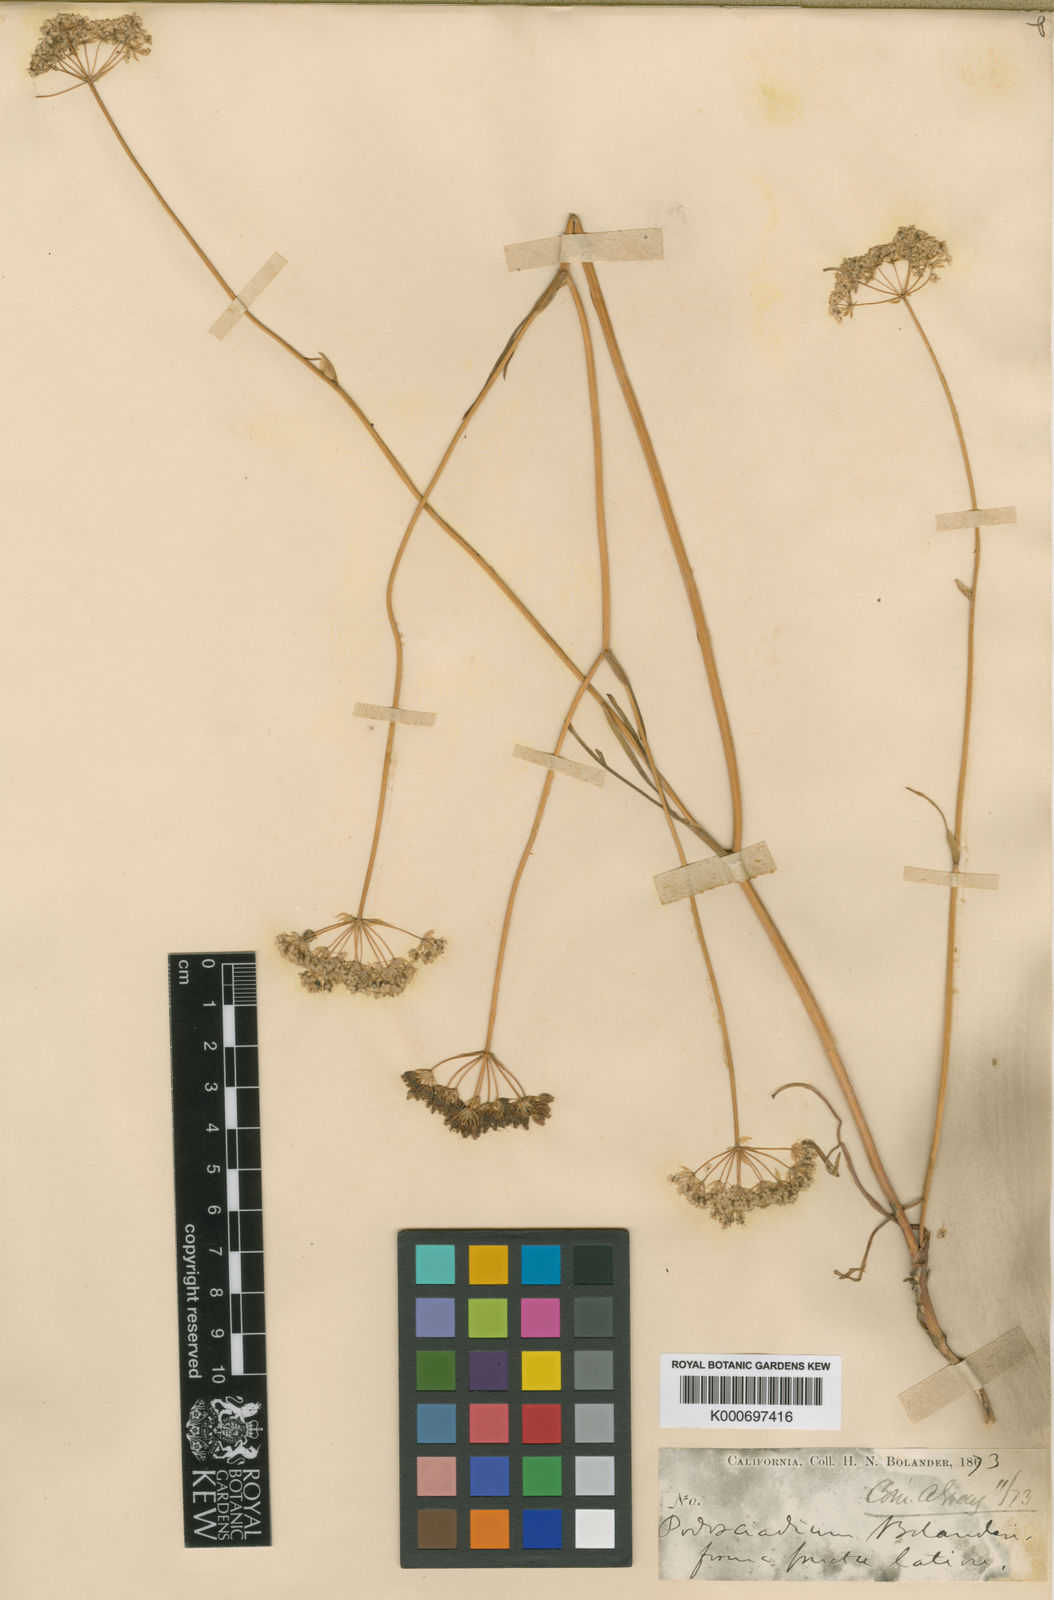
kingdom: Plantae
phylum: Tracheophyta
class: Magnoliopsida
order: Apiales
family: Apiaceae
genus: Perideridia
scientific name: Perideridia bolanderi
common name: Olasi
